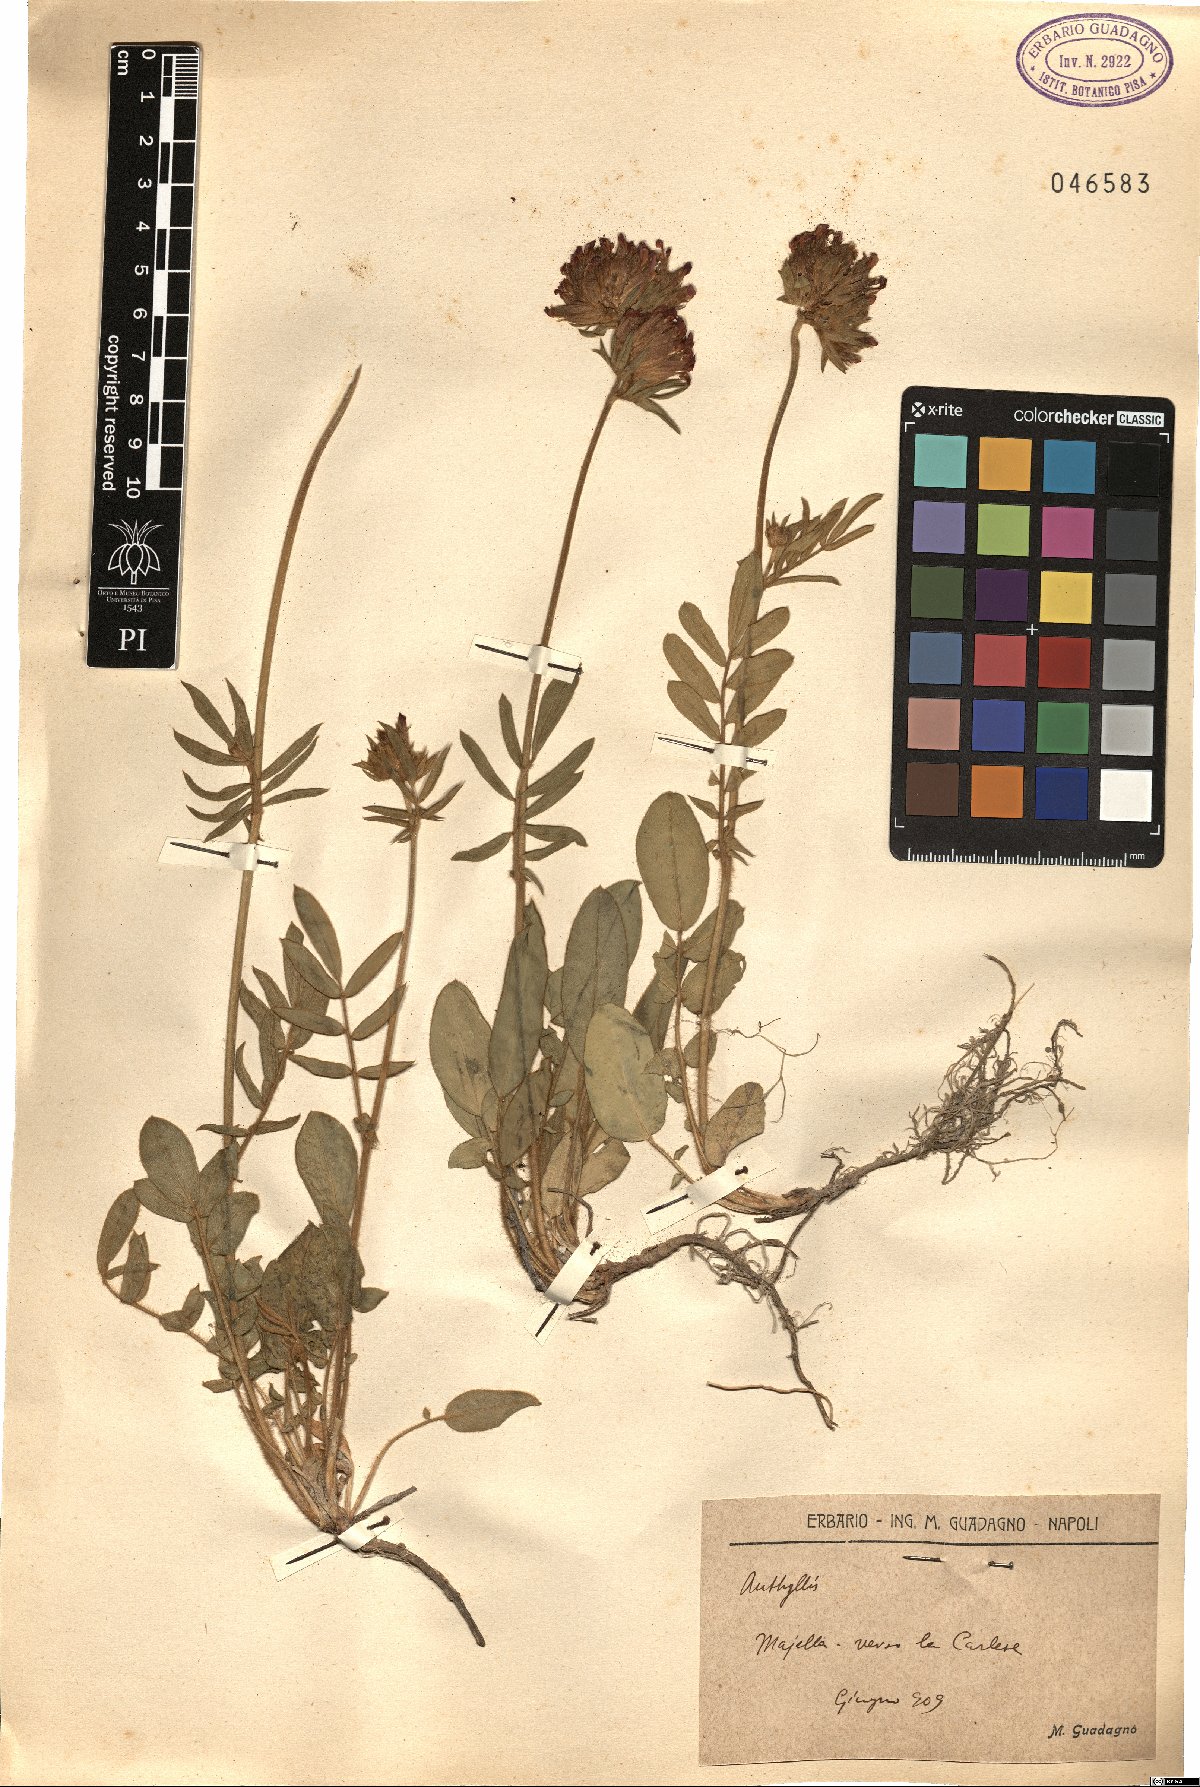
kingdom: Plantae
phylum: Tracheophyta
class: Magnoliopsida
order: Fabales
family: Fabaceae
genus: Anthyllis
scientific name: Anthyllis
